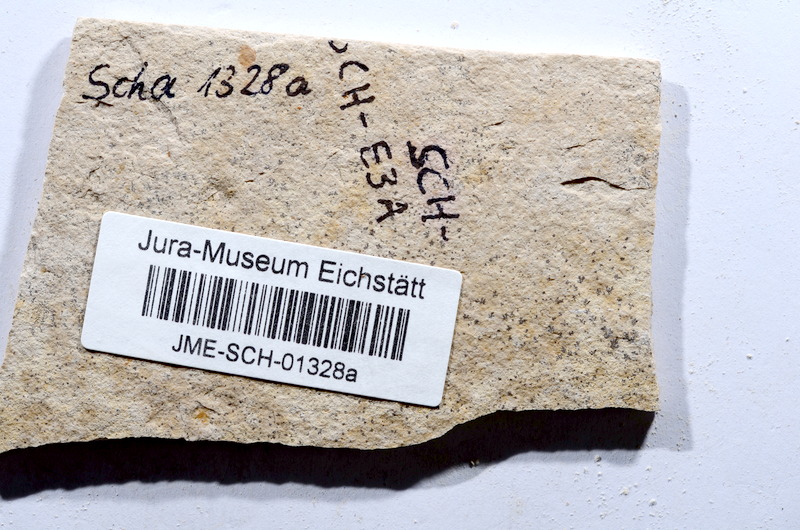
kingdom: Animalia
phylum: Chordata
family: Ascalaboidae
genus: Tharsis
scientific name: Tharsis dubius
